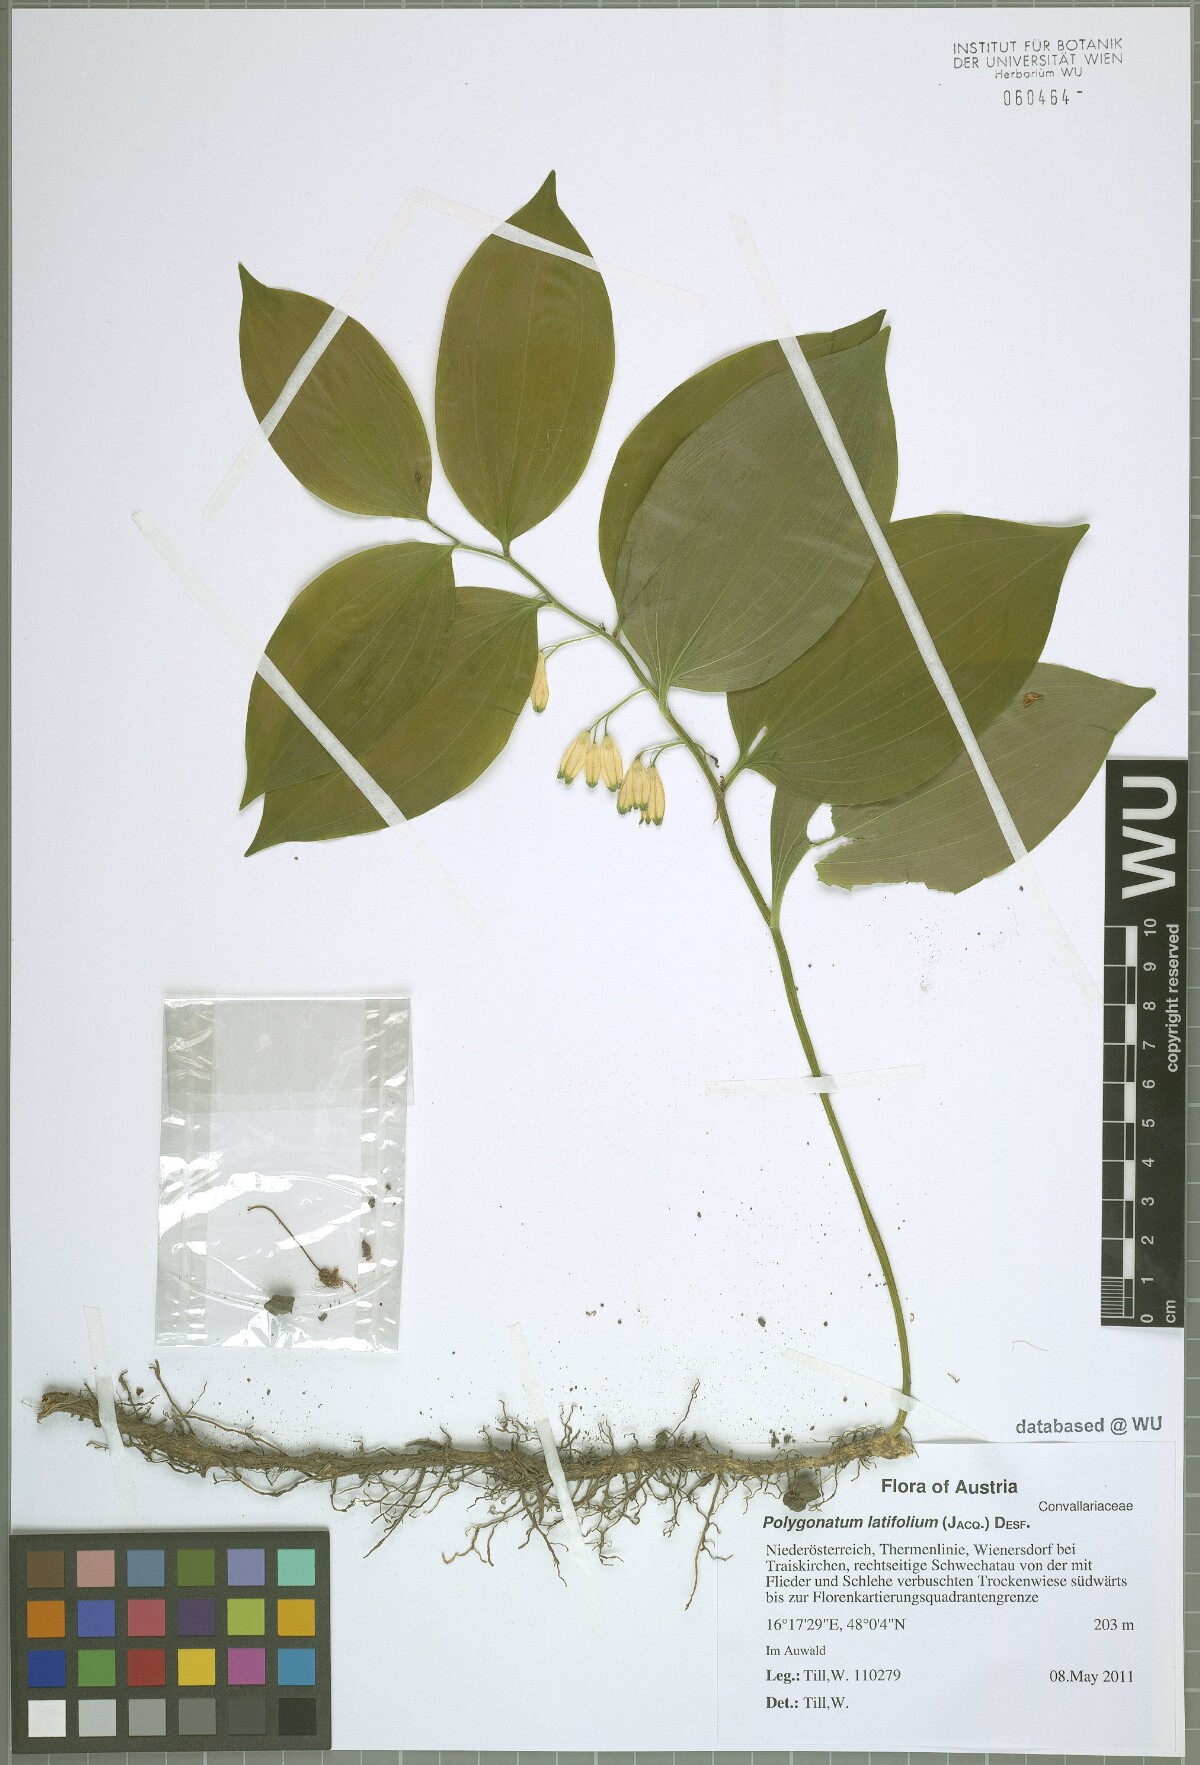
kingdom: Plantae
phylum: Tracheophyta
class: Liliopsida
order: Asparagales
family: Asparagaceae
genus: Polygonatum
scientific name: Polygonatum latifolium
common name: Broadleaf solomon's seal
